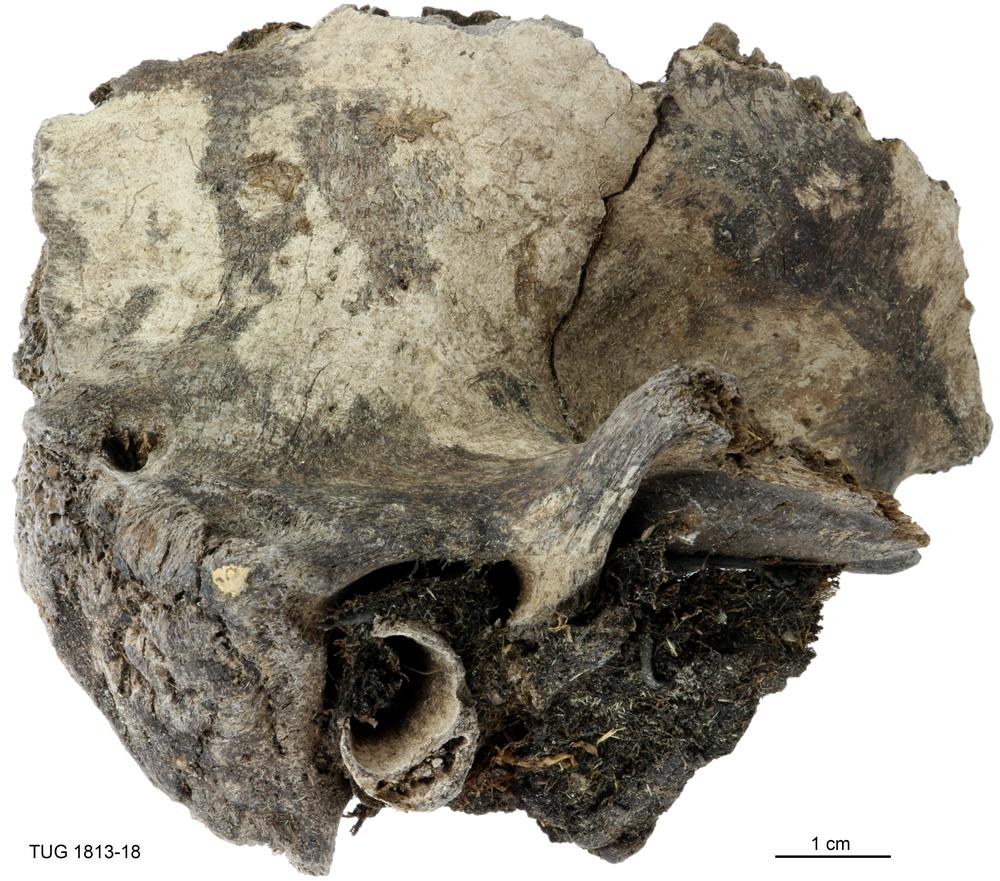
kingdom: Animalia
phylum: Chordata
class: Mammalia
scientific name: Mammalia
